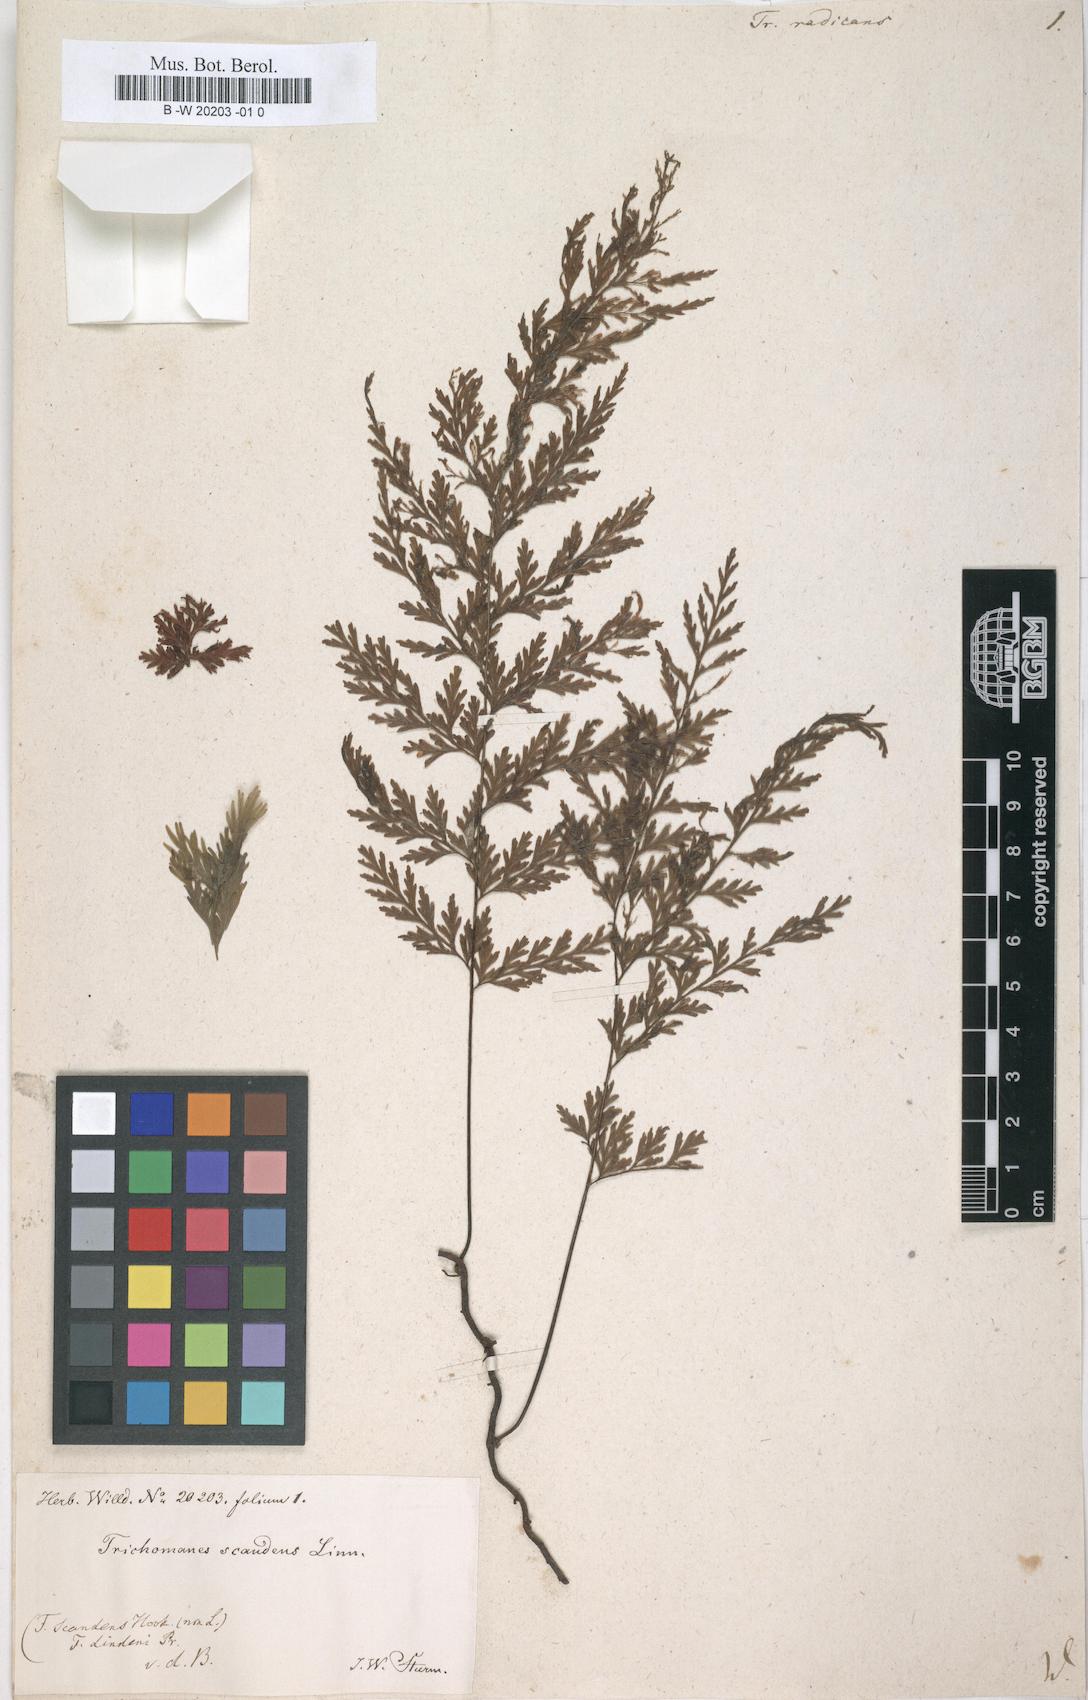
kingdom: Plantae
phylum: Tracheophyta
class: Polypodiopsida
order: Hymenophyllales
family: Hymenophyllaceae
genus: Vandenboschia
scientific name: Vandenboschia radicans
